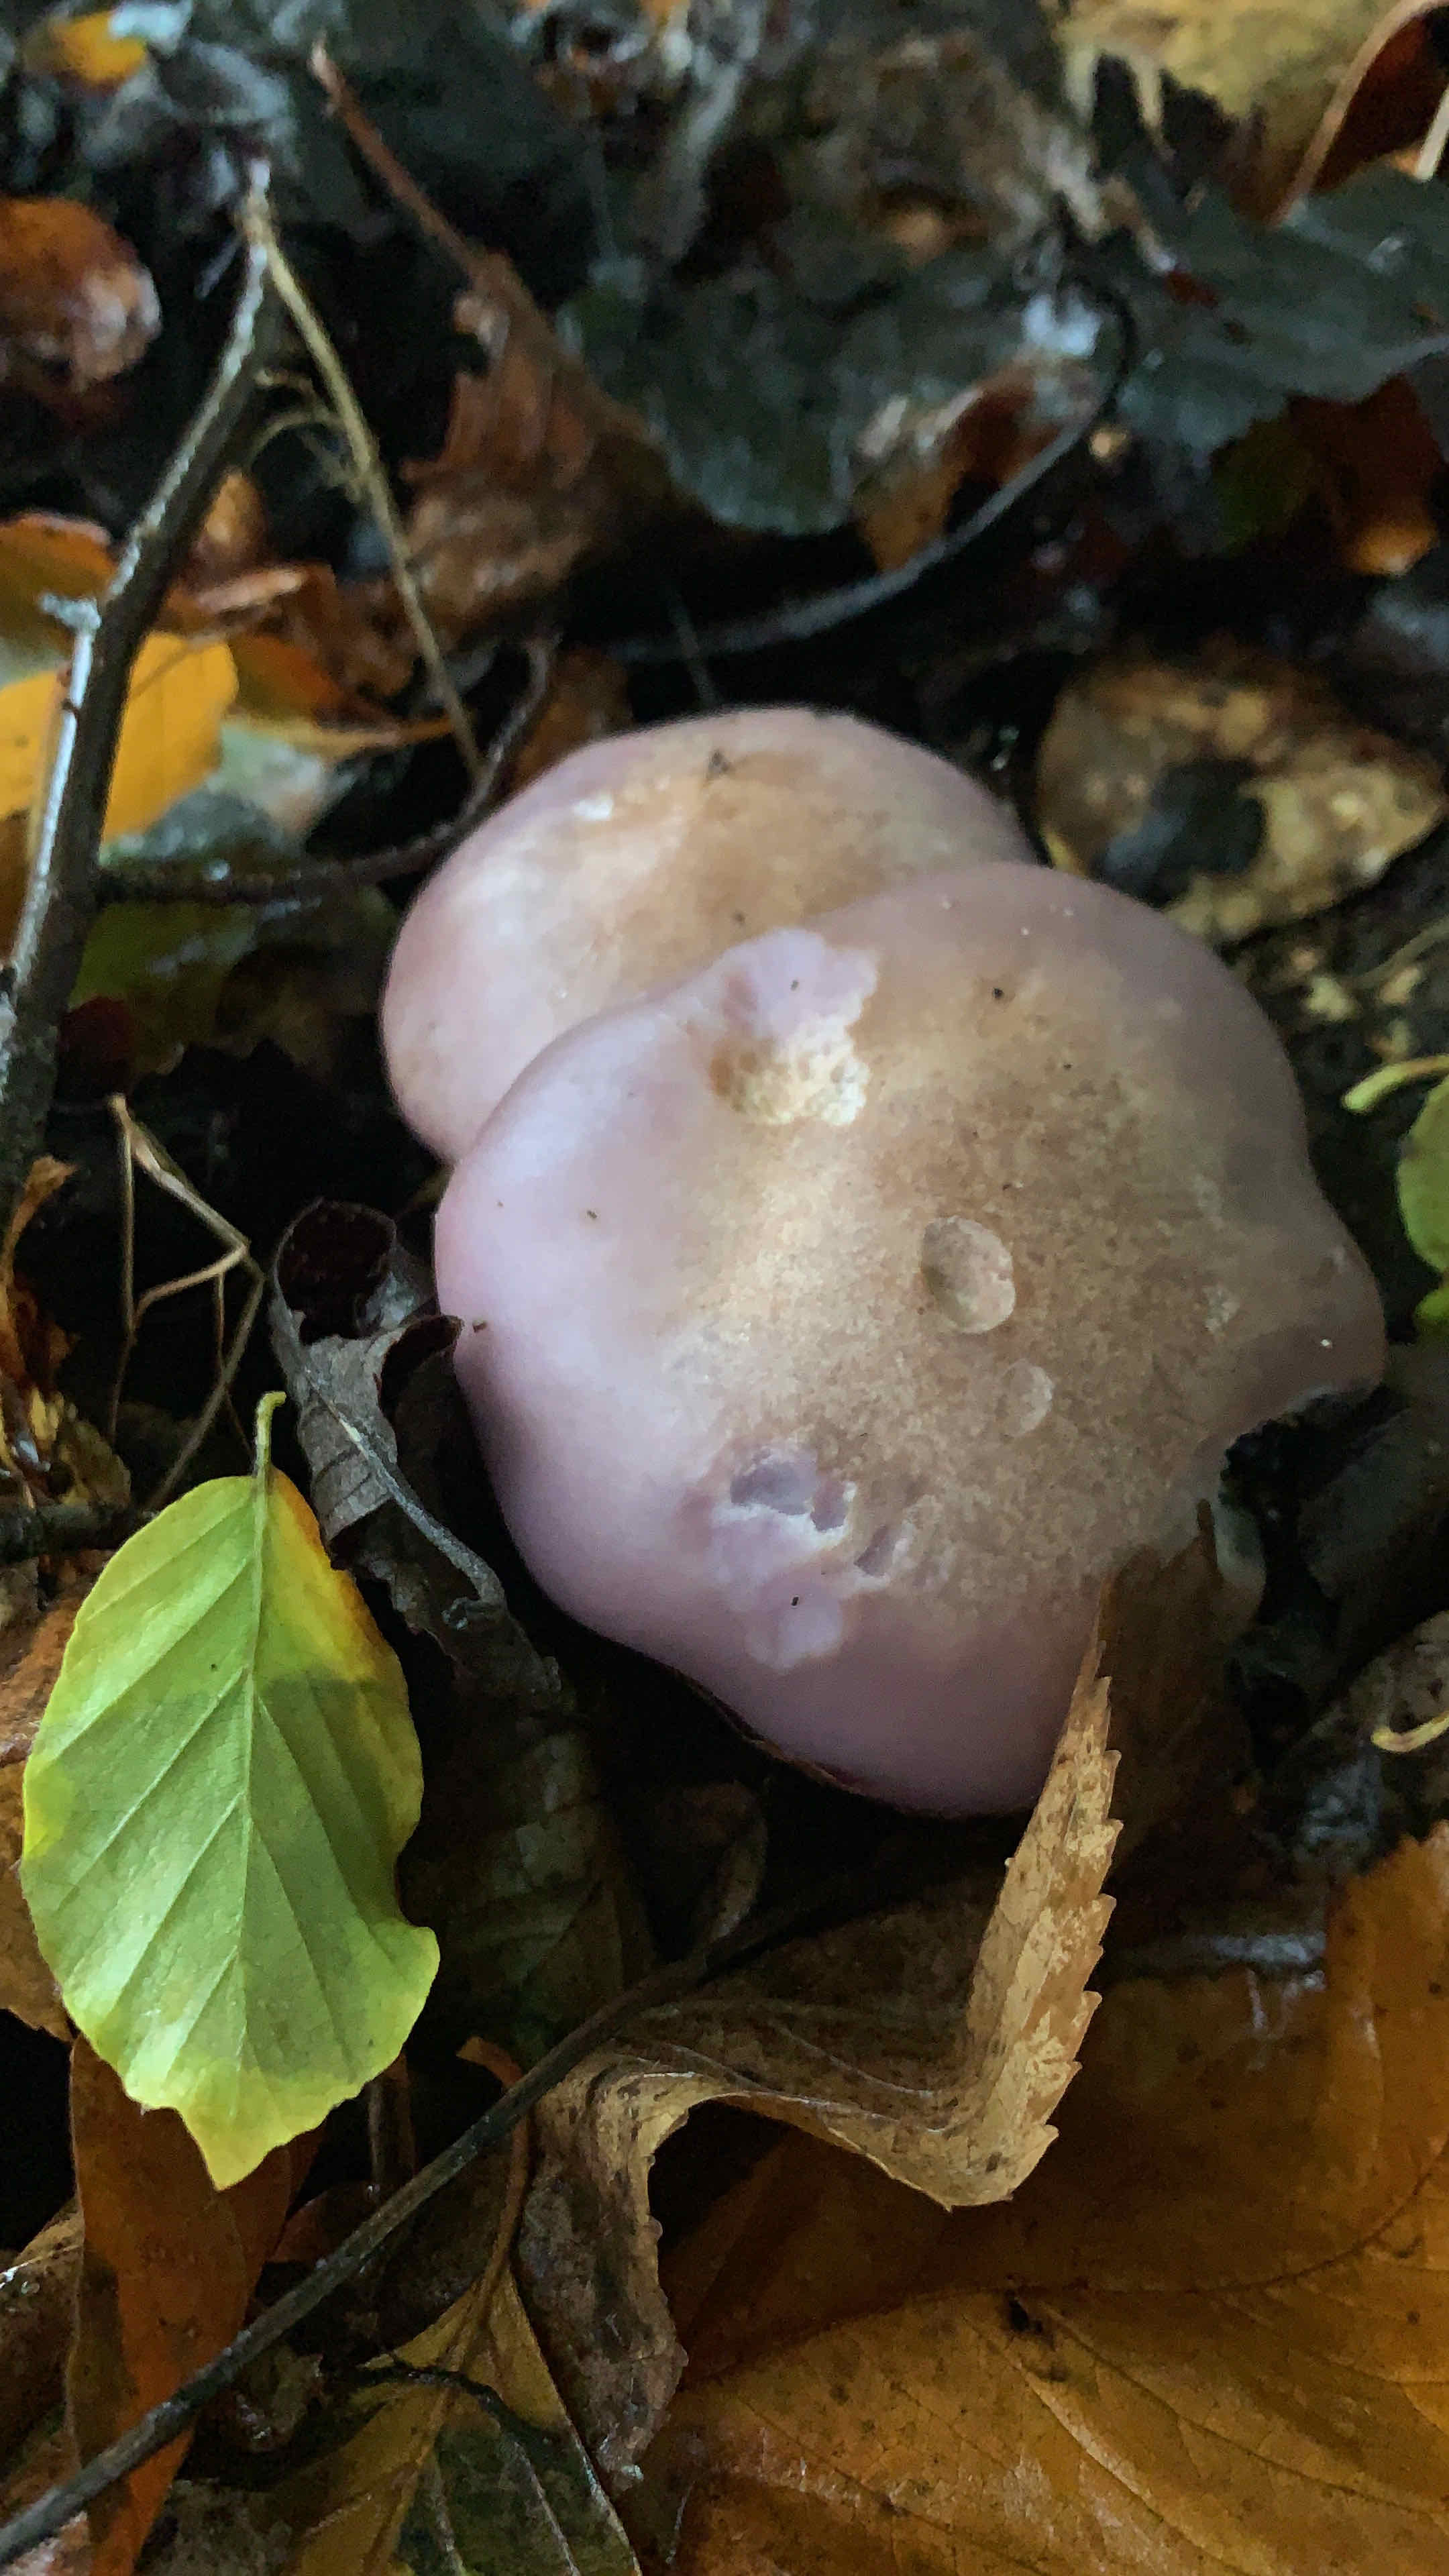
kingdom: Fungi
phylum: Basidiomycota
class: Agaricomycetes
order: Agaricales
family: Tricholomataceae
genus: Lepista
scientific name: Lepista
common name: hekseringshat
